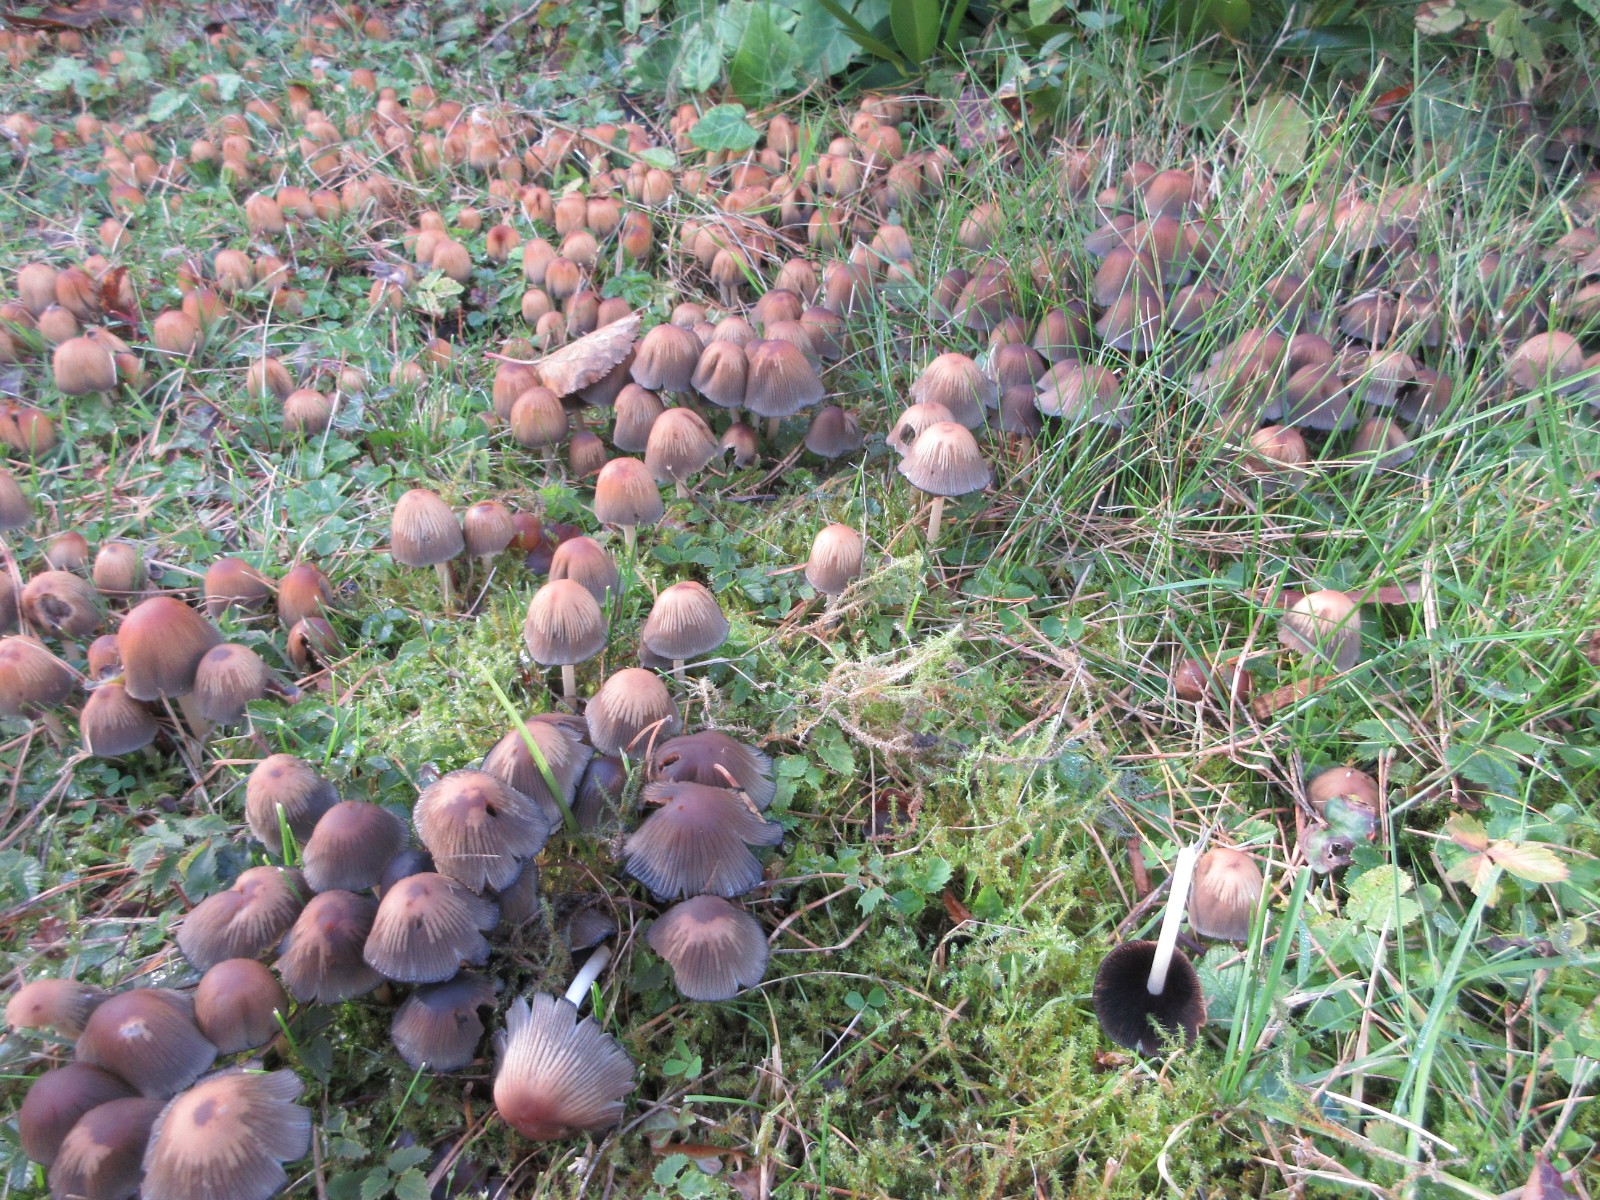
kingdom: Fungi
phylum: Basidiomycota
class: Agaricomycetes
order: Agaricales
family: Psathyrellaceae
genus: Coprinellus
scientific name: Coprinellus deliquescens
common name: rusporet blækhat
